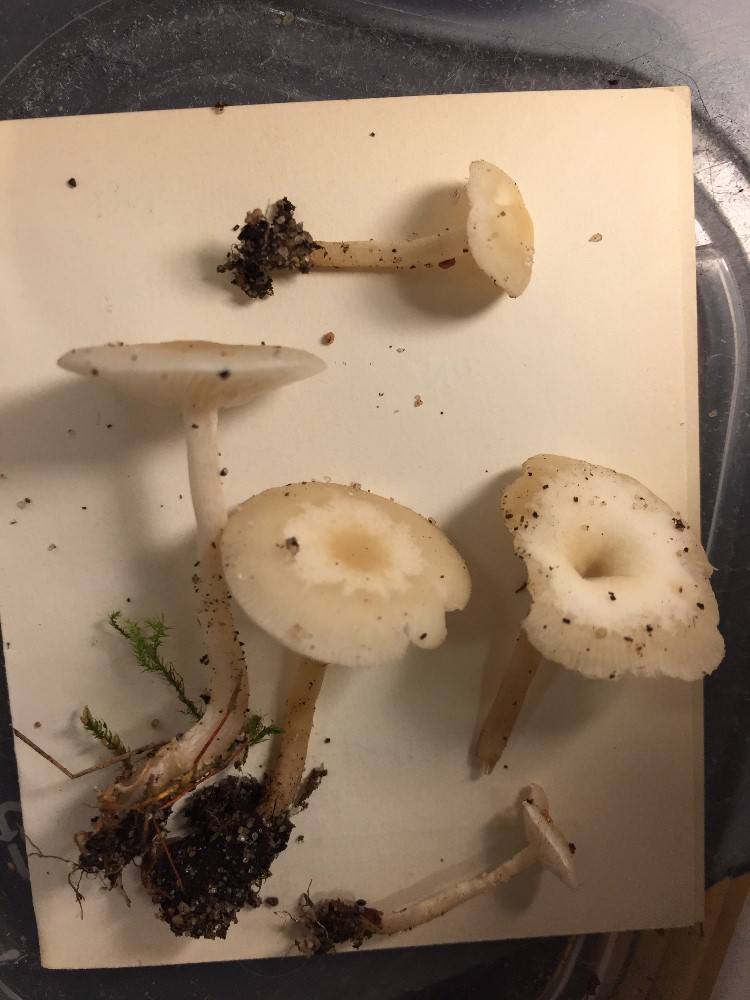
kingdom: Fungi
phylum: Basidiomycota
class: Agaricomycetes
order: Agaricales
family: Tricholomataceae
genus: Clitocybe
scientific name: Clitocybe agrestis
